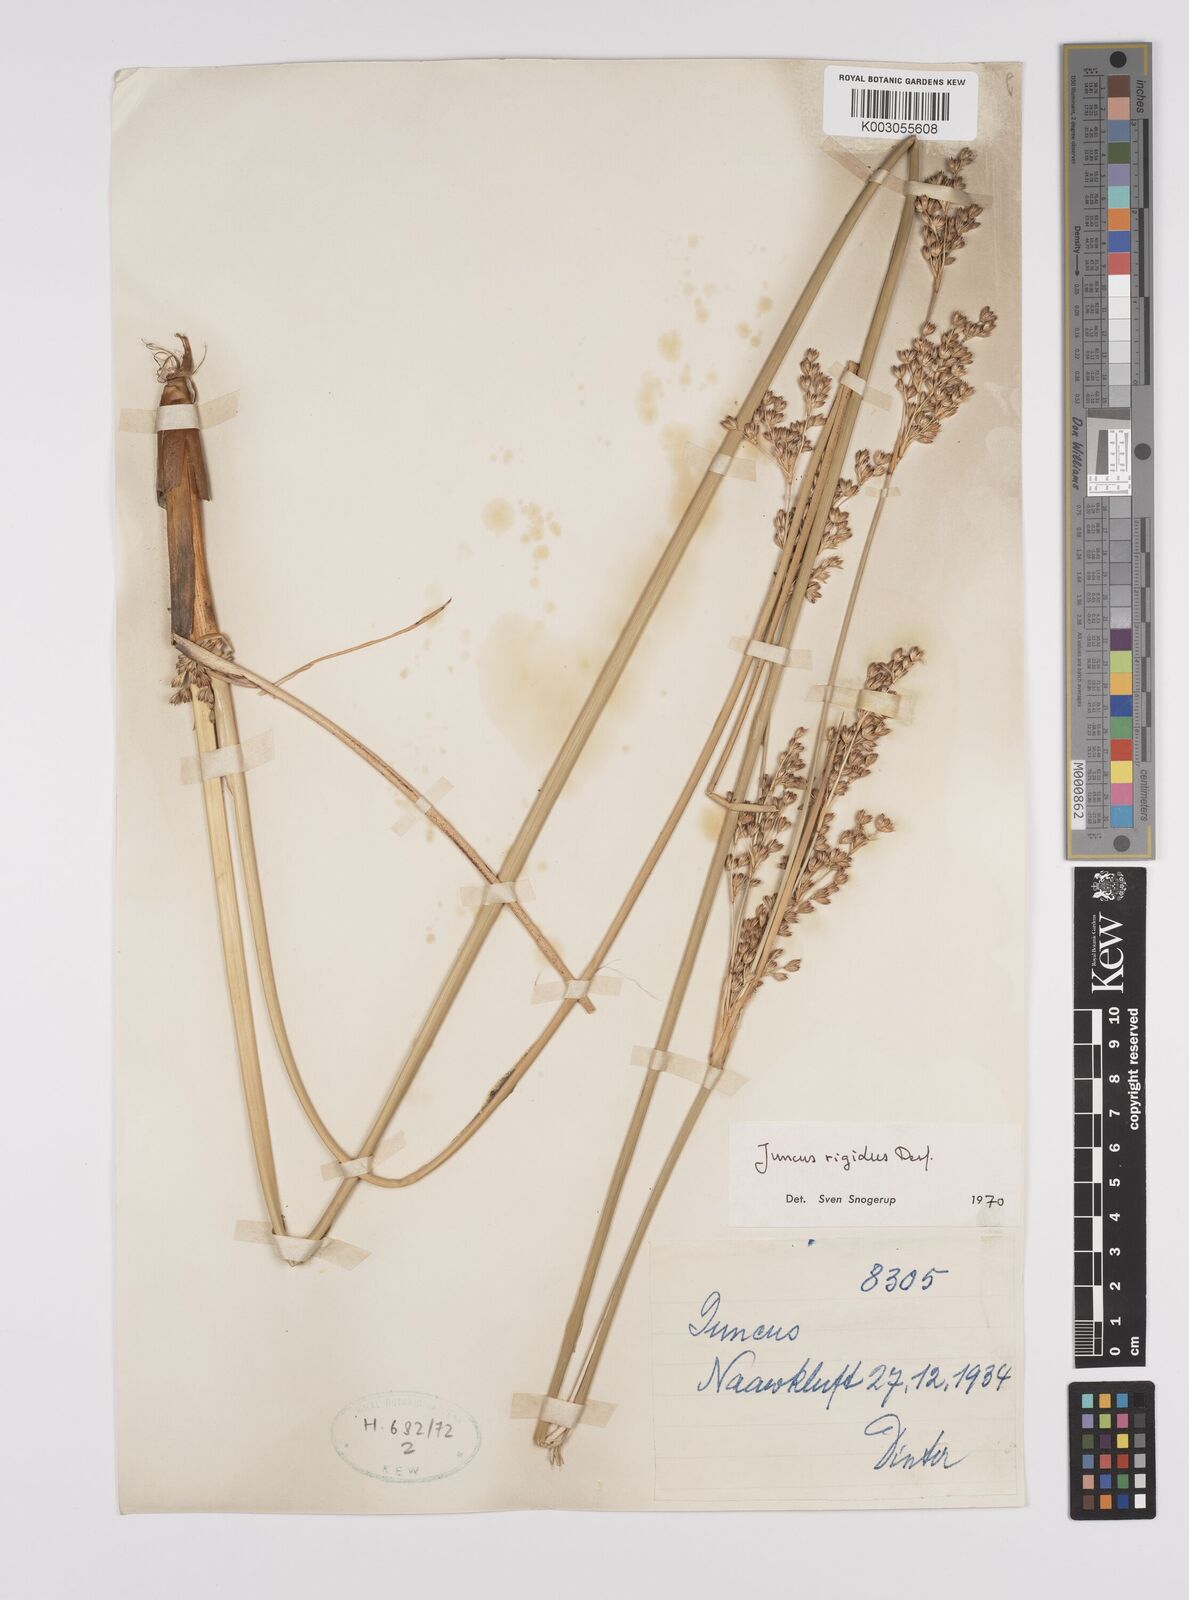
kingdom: Plantae
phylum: Tracheophyta
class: Liliopsida
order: Poales
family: Juncaceae
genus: Juncus
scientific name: Juncus rigidus
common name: Hard sea rush
